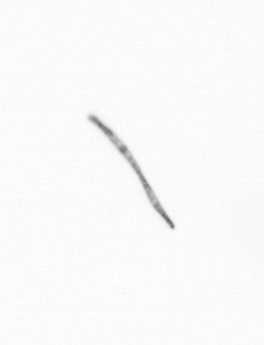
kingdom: Chromista
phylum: Ochrophyta
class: Bacillariophyceae
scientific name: Bacillariophyceae
